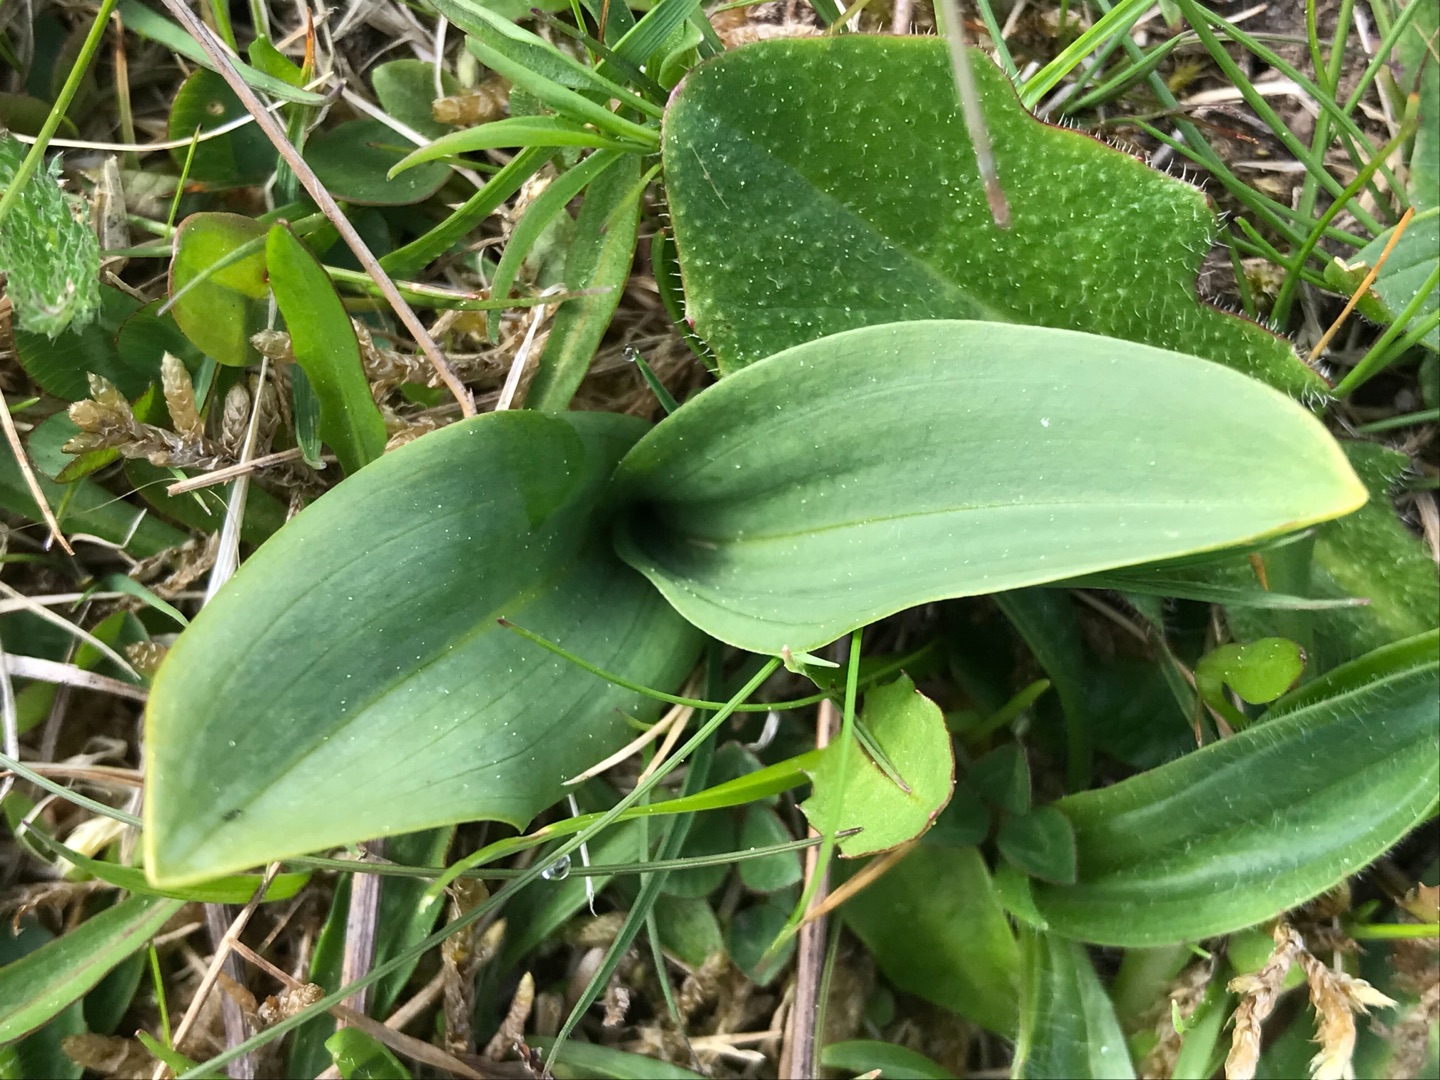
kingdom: Plantae
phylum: Tracheophyta
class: Liliopsida
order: Asparagales
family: Orchidaceae
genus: Platanthera
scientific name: Platanthera
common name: Gøgeliljeslægten
